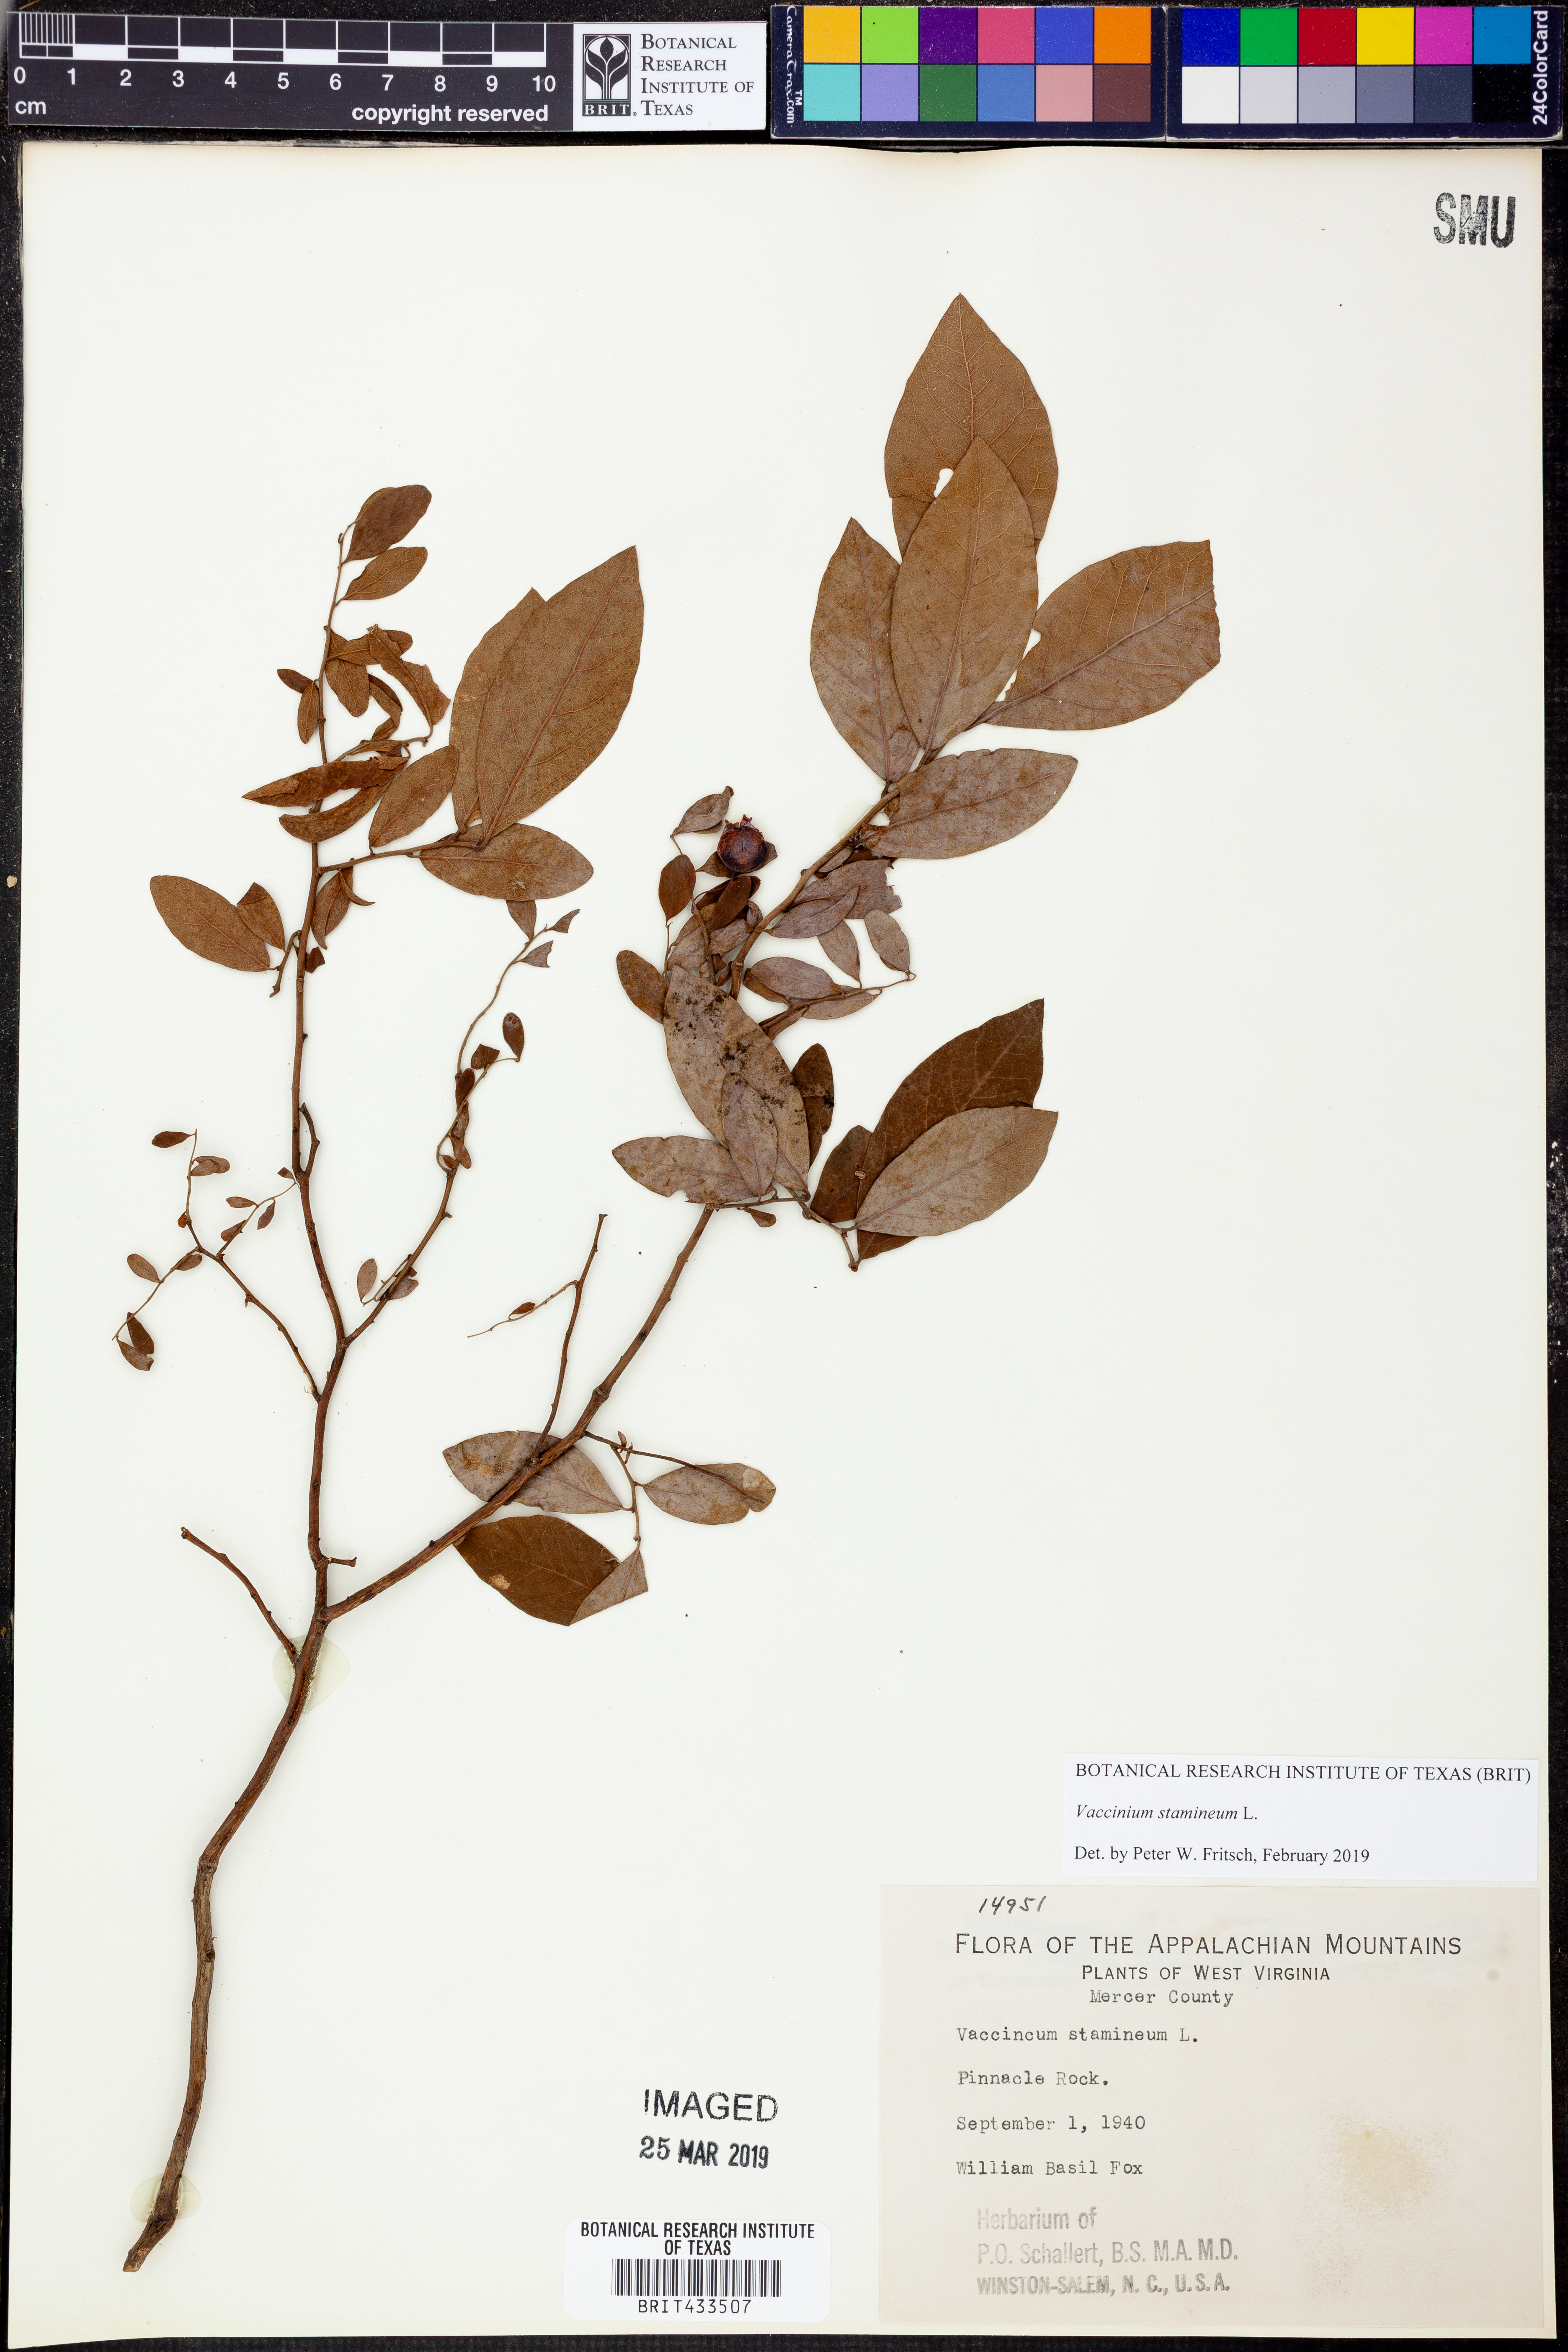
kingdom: Plantae
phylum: Tracheophyta
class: Magnoliopsida
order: Ericales
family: Ericaceae
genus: Vaccinium
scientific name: Vaccinium stamineum
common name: Deerberry
